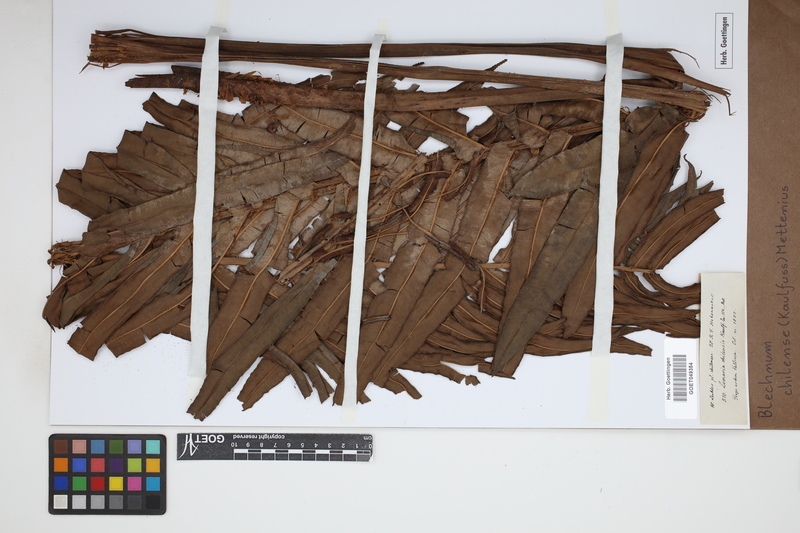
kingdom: Plantae
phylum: Tracheophyta
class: Polypodiopsida
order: Polypodiales
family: Blechnaceae
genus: Parablechnum
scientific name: Parablechnum chilense
